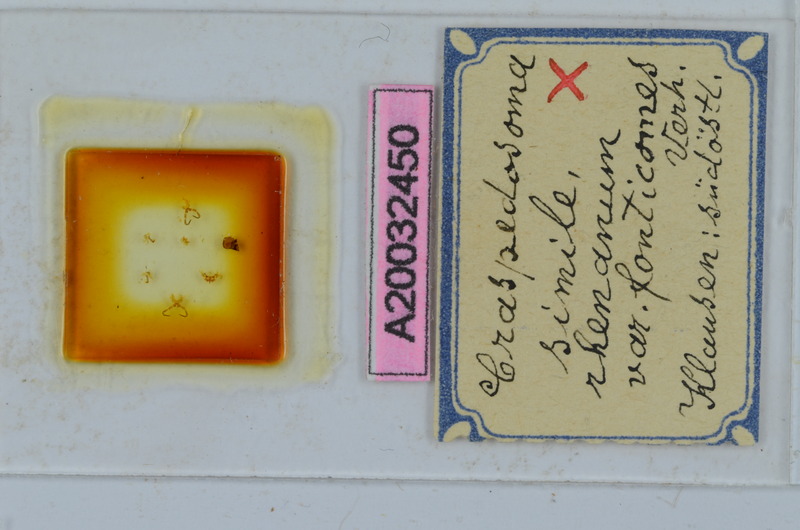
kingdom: Animalia
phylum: Arthropoda
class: Diplopoda
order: Chordeumatida
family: Craspedosomatidae
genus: Craspedosoma
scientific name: Craspedosoma rawlinsii
